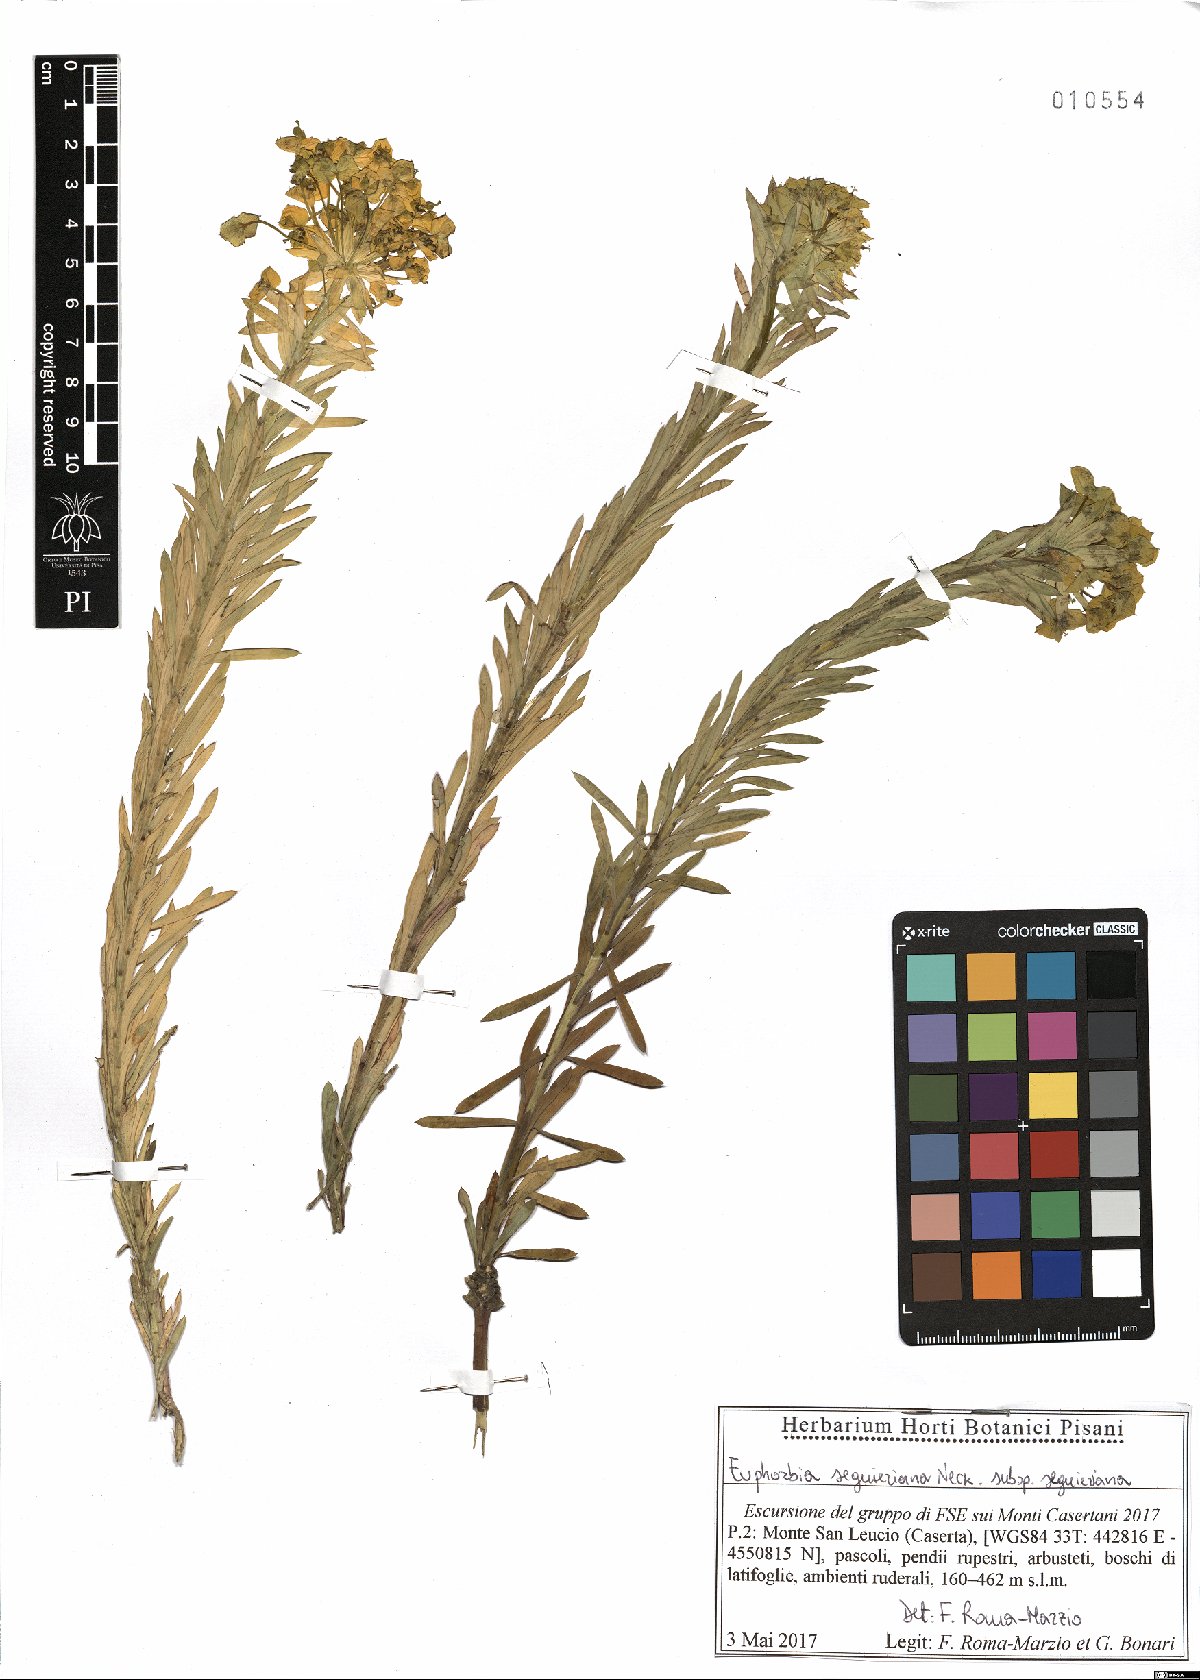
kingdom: Plantae
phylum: Tracheophyta
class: Magnoliopsida
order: Malpighiales
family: Euphorbiaceae
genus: Euphorbia
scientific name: Euphorbia seguieriana
